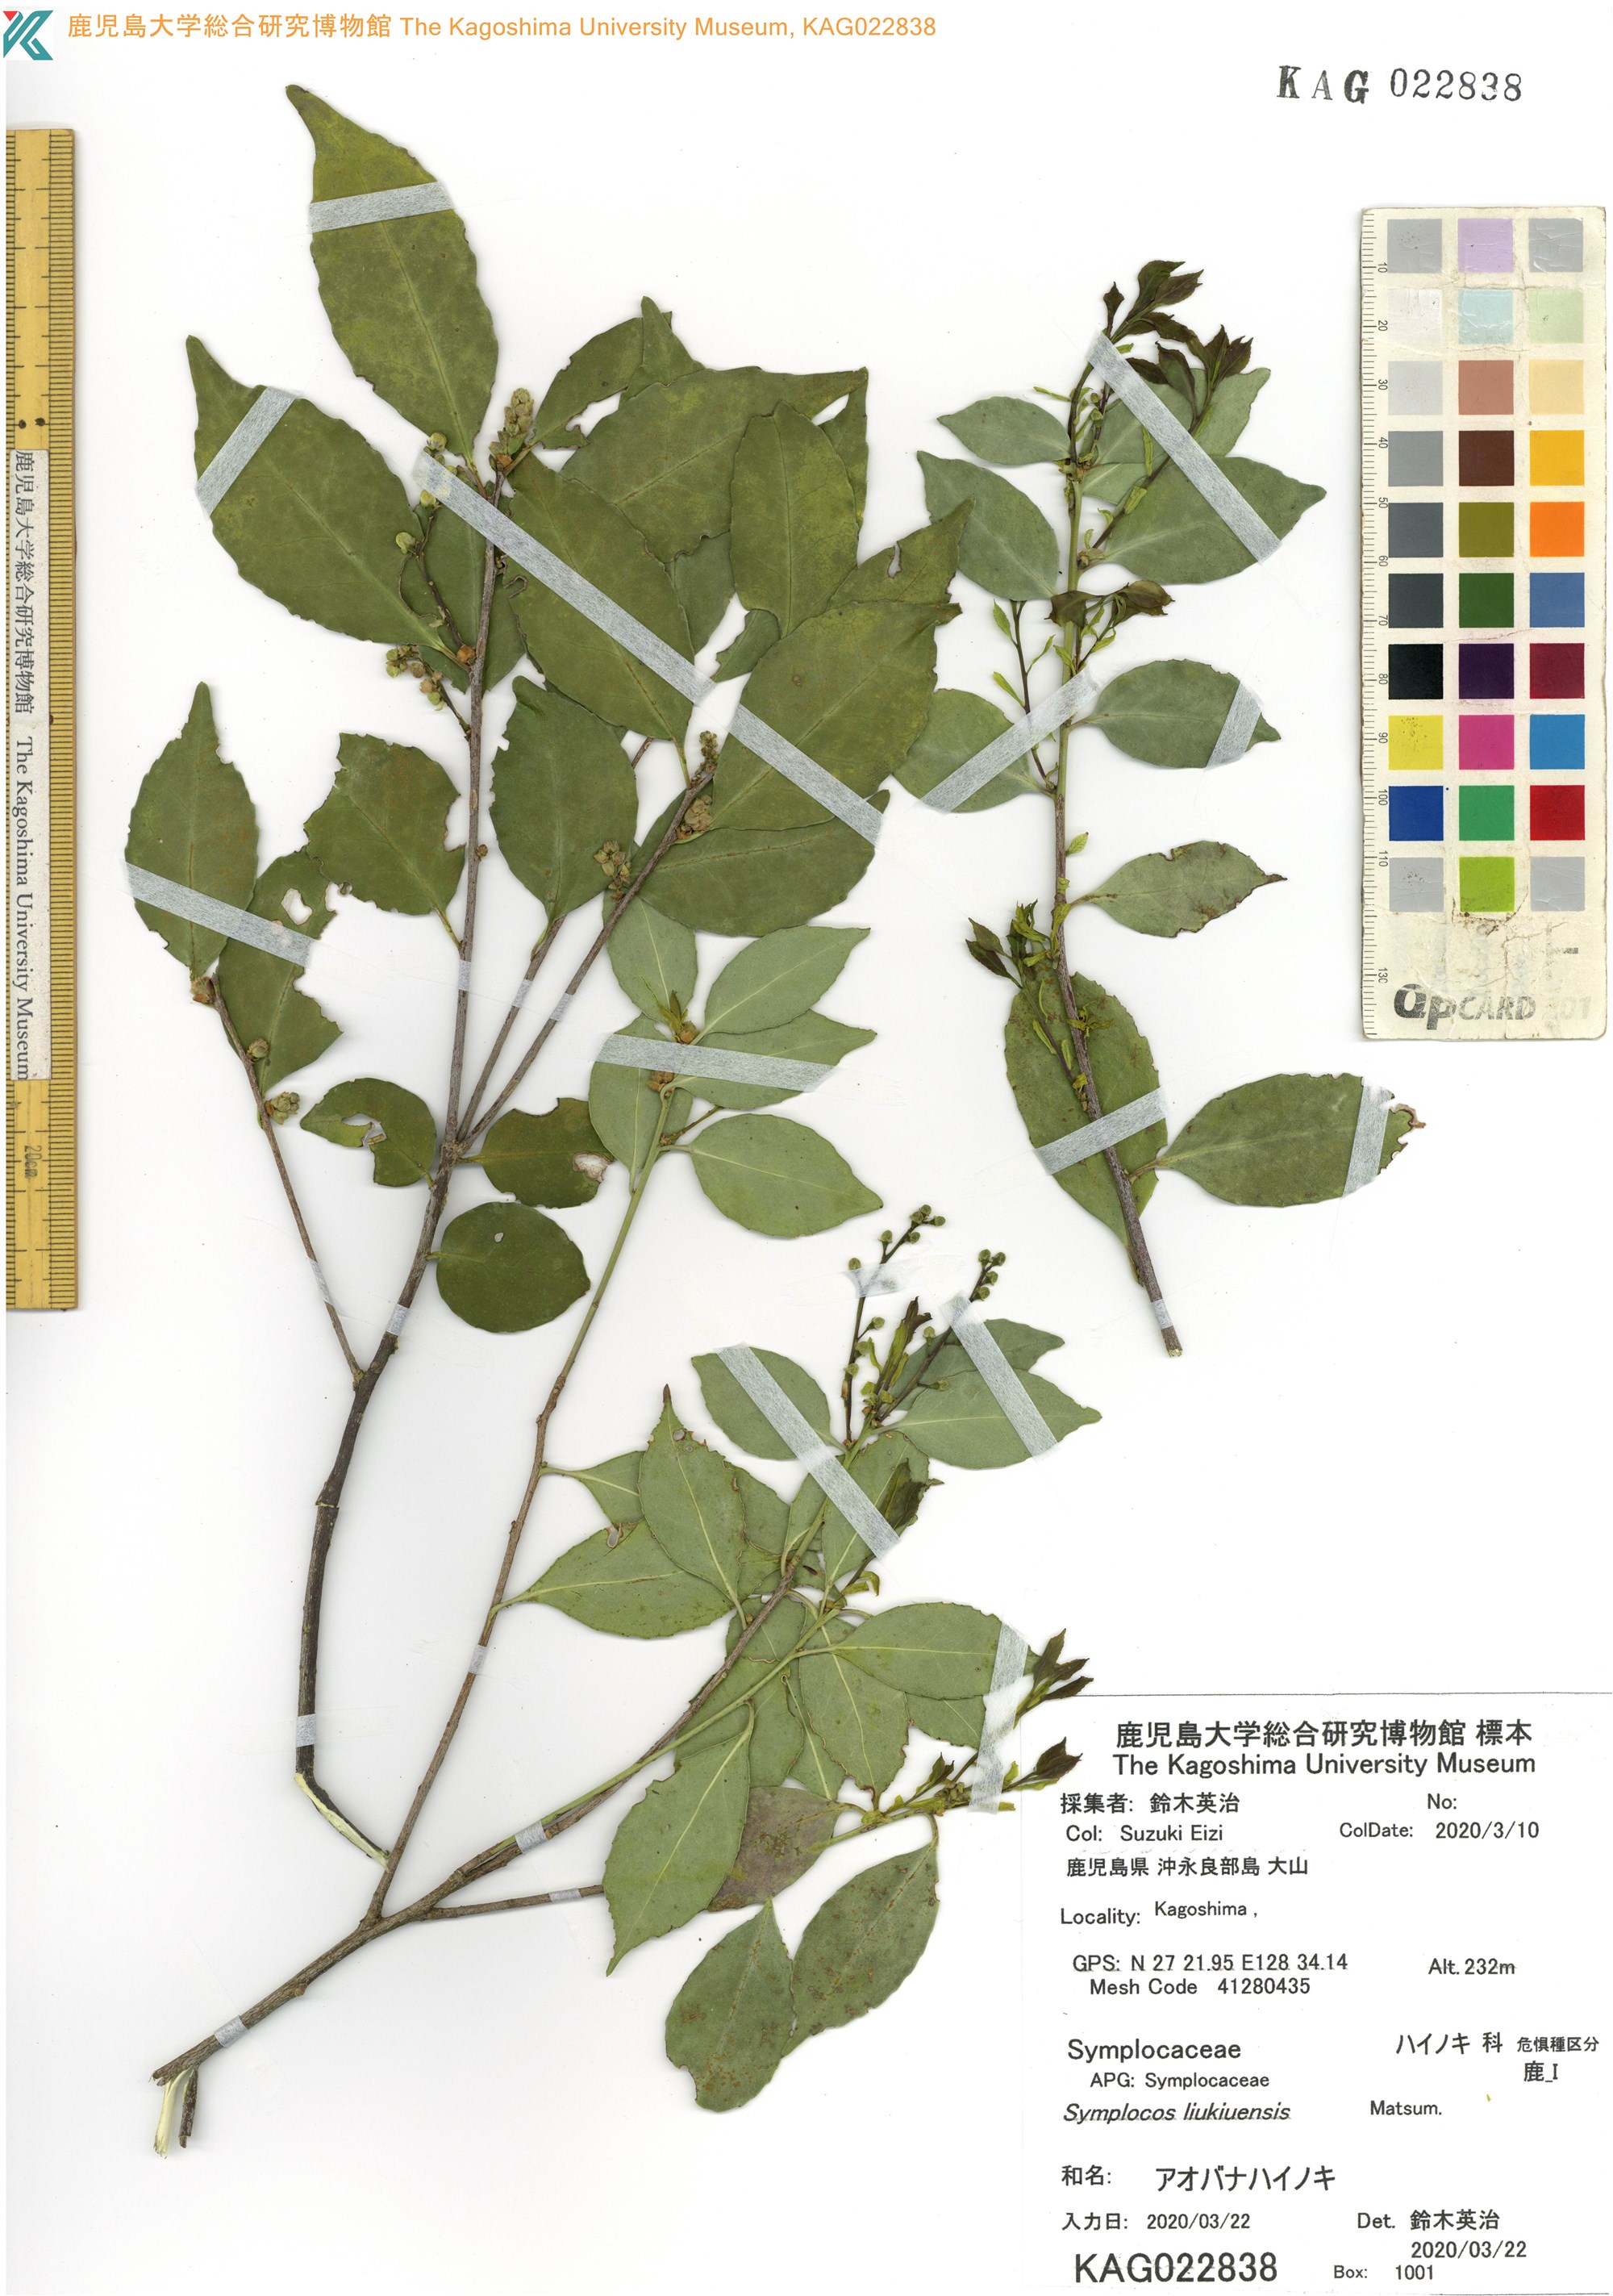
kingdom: Plantae
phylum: Tracheophyta
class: Magnoliopsida
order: Ericales
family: Symplocaceae
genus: Symplocos
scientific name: Symplocos liukiuensis
